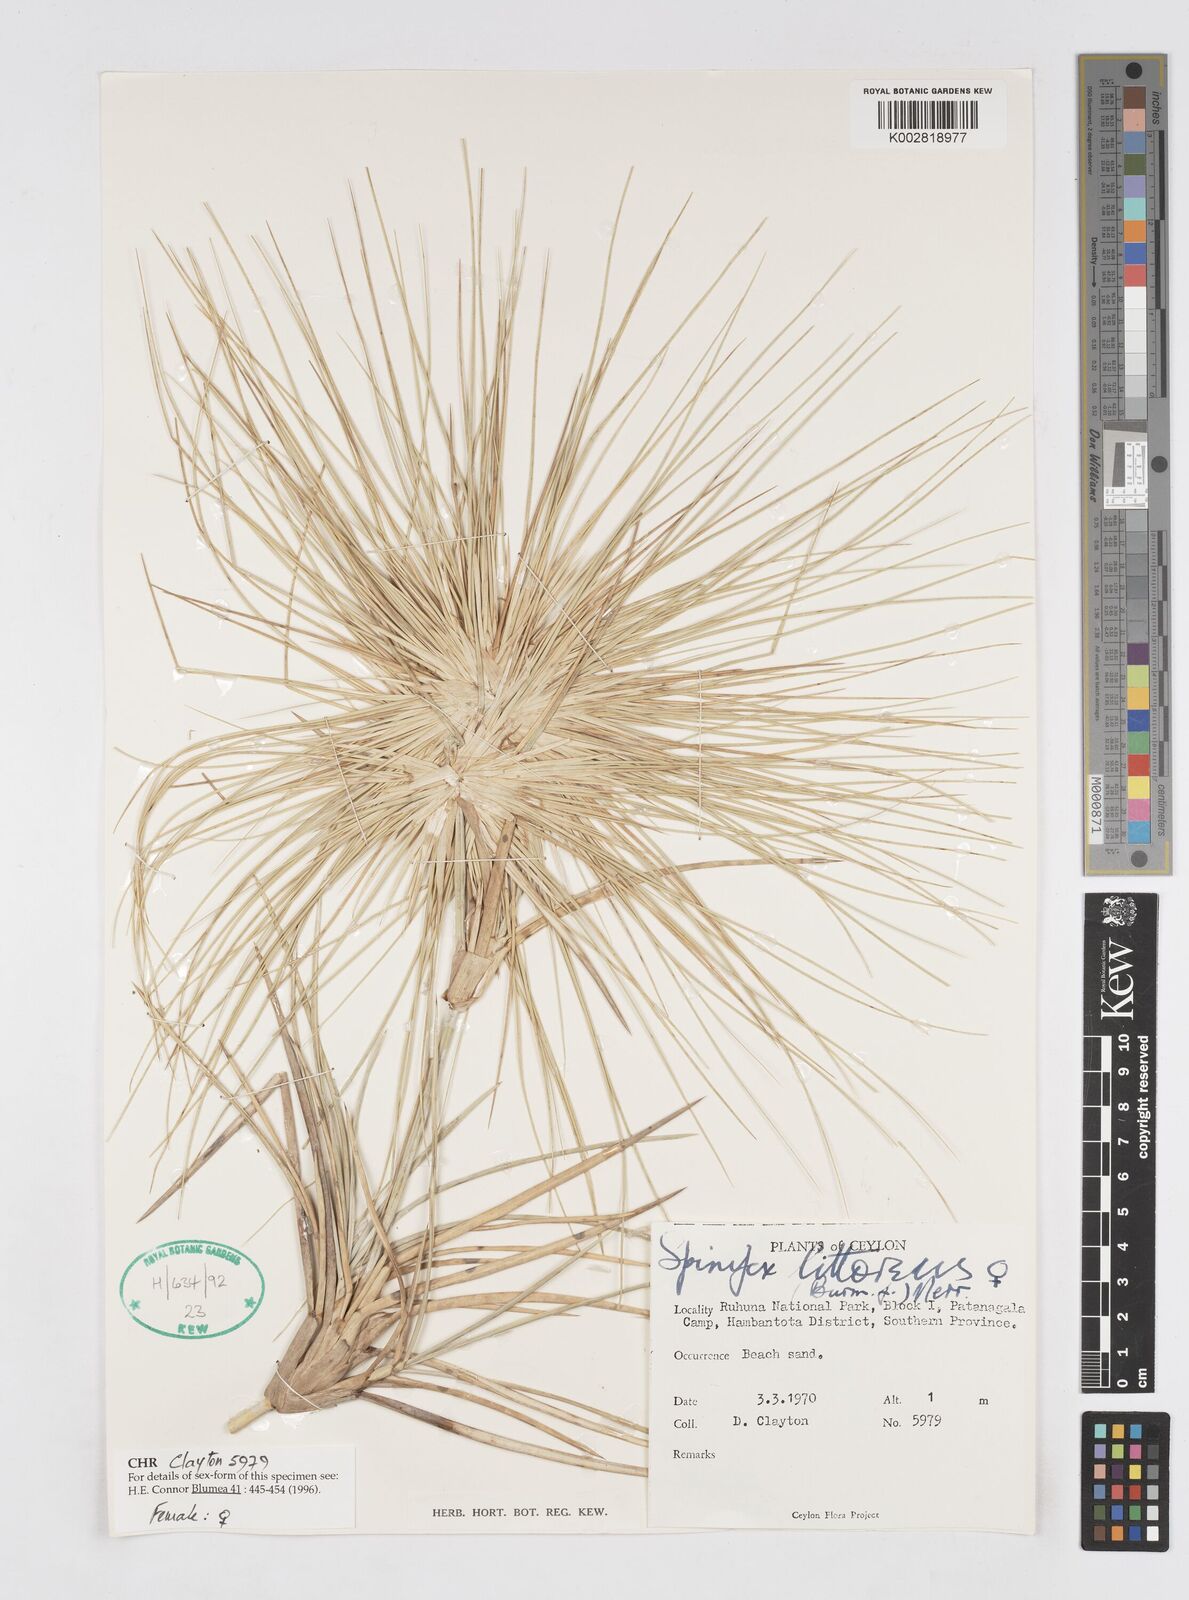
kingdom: Plantae
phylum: Tracheophyta
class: Liliopsida
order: Poales
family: Poaceae
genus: Spinifex
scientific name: Spinifex littoreus
